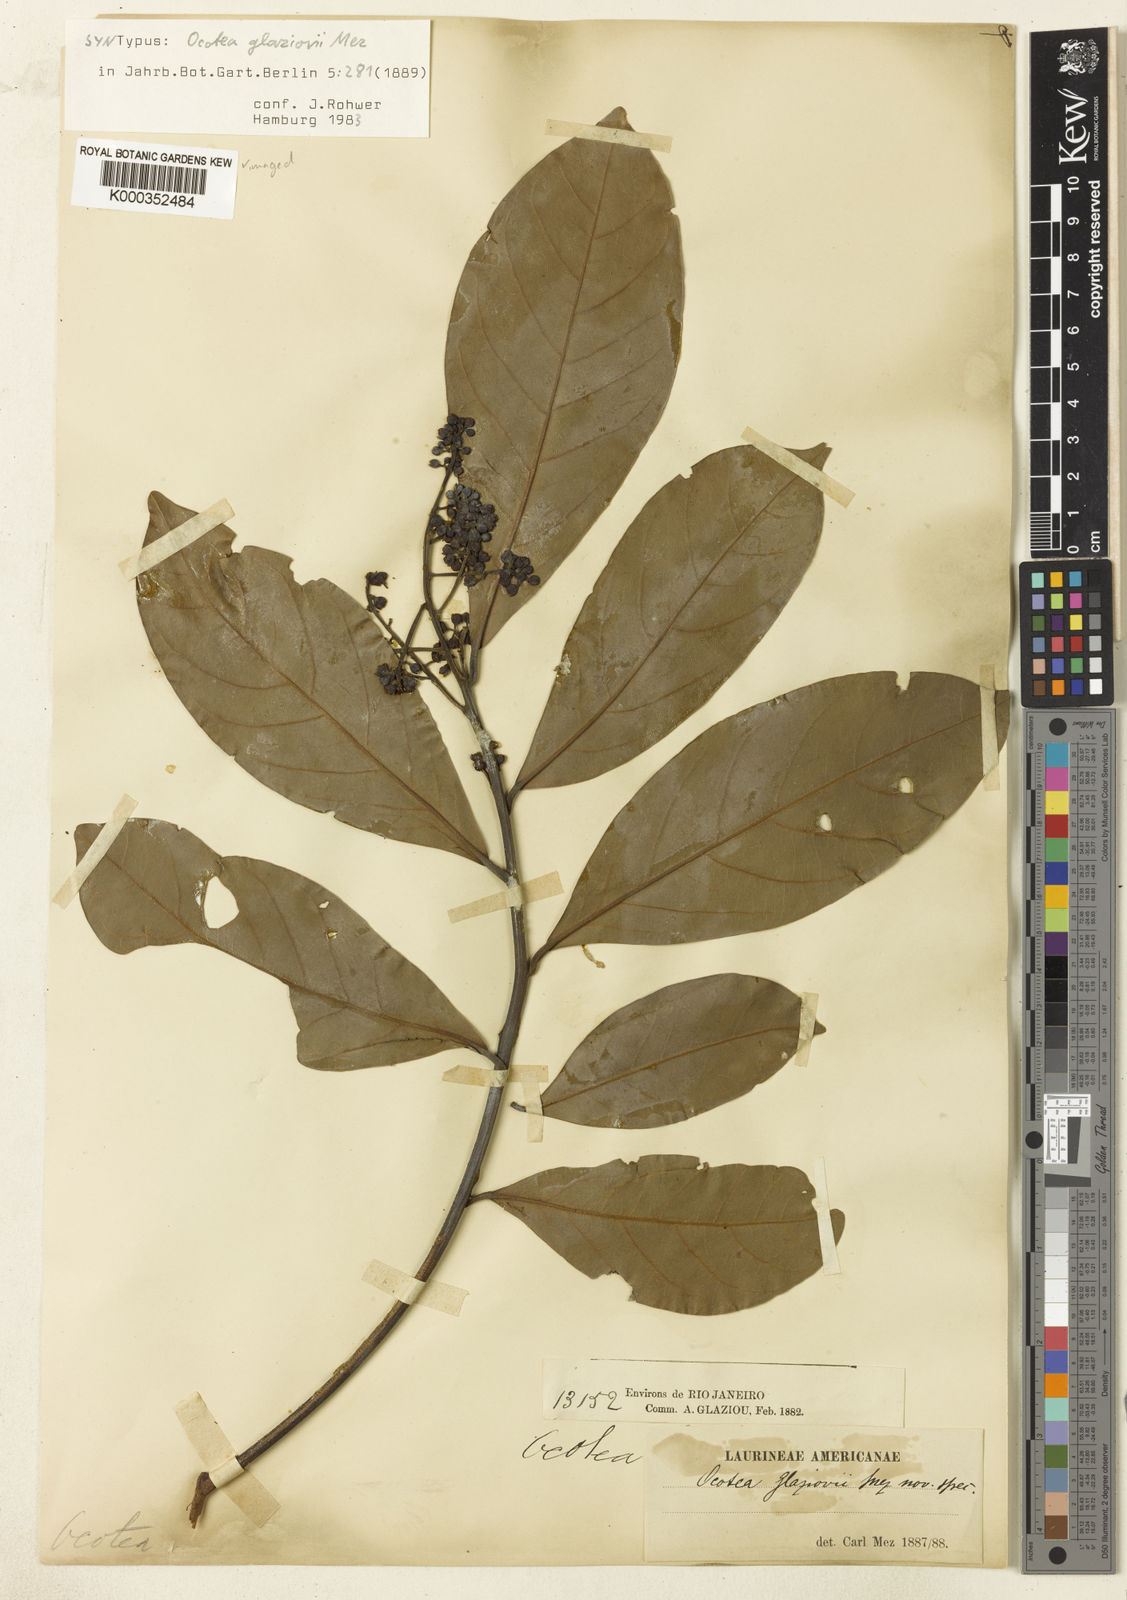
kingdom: Plantae
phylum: Tracheophyta
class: Magnoliopsida
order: Laurales
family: Lauraceae
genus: Ocotea
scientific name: Ocotea glaziovii
